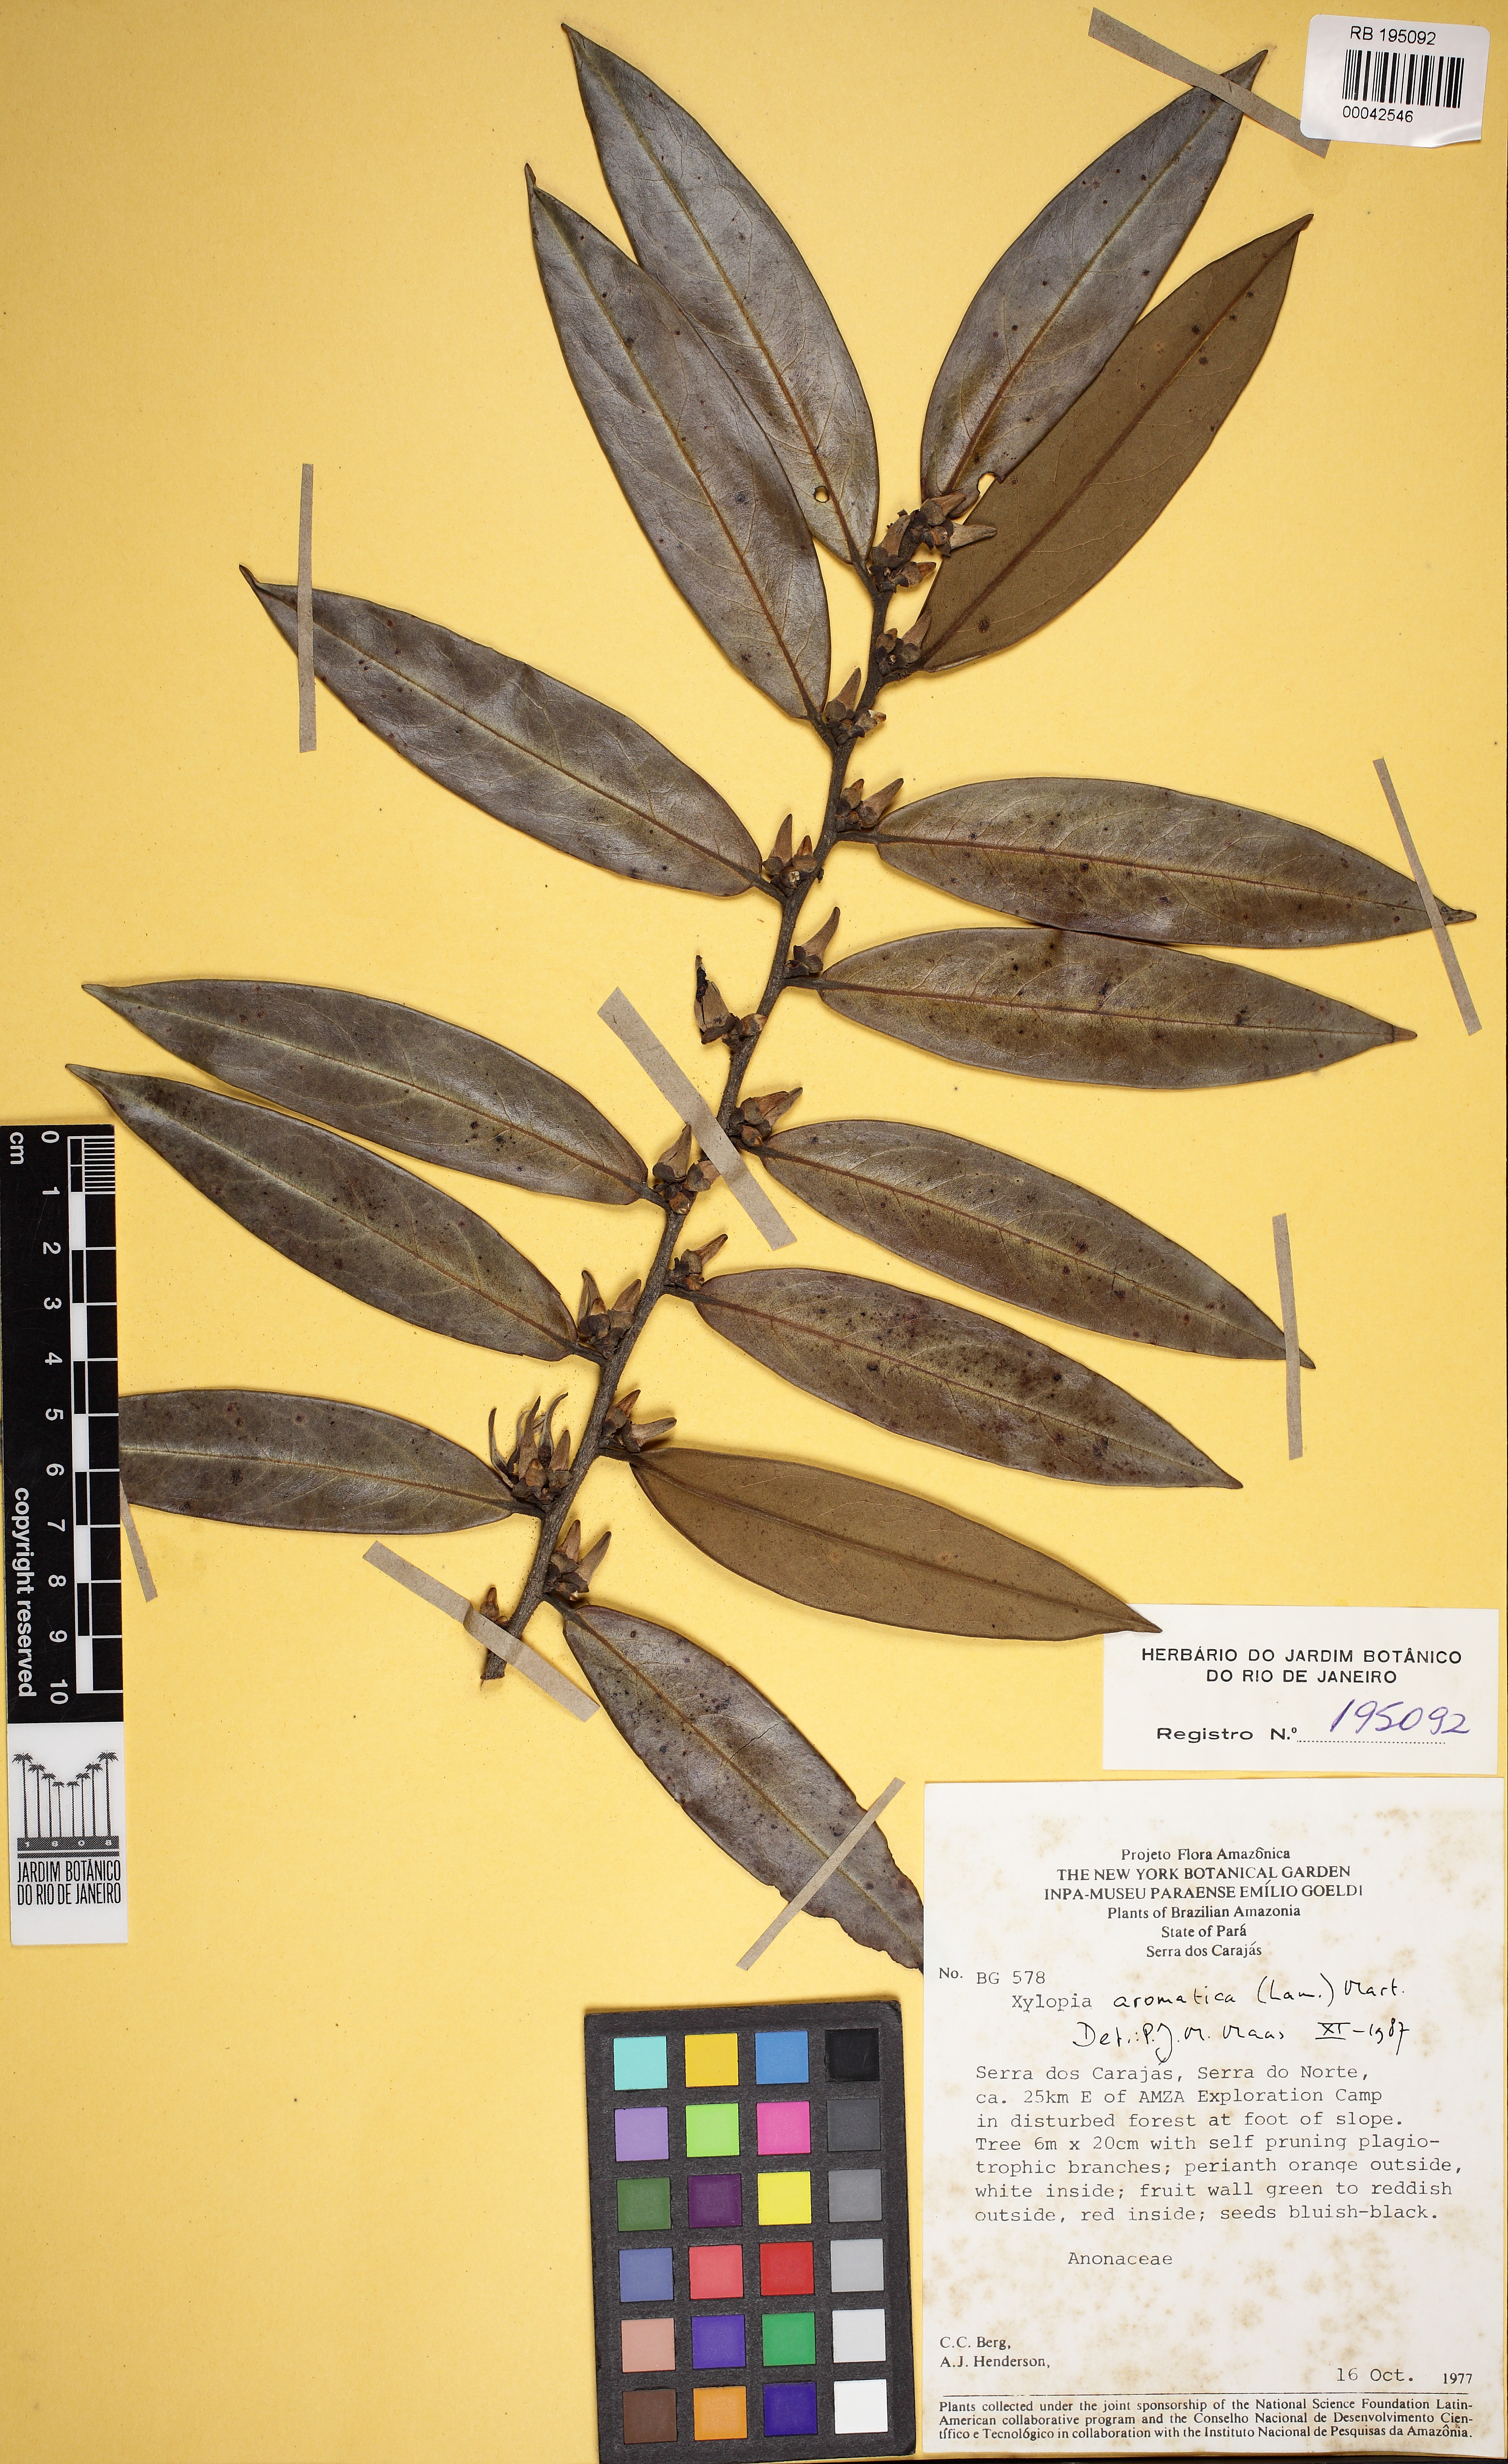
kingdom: Plantae
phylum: Tracheophyta
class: Magnoliopsida
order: Magnoliales
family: Annonaceae
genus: Xylopia
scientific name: Xylopia aromatica
